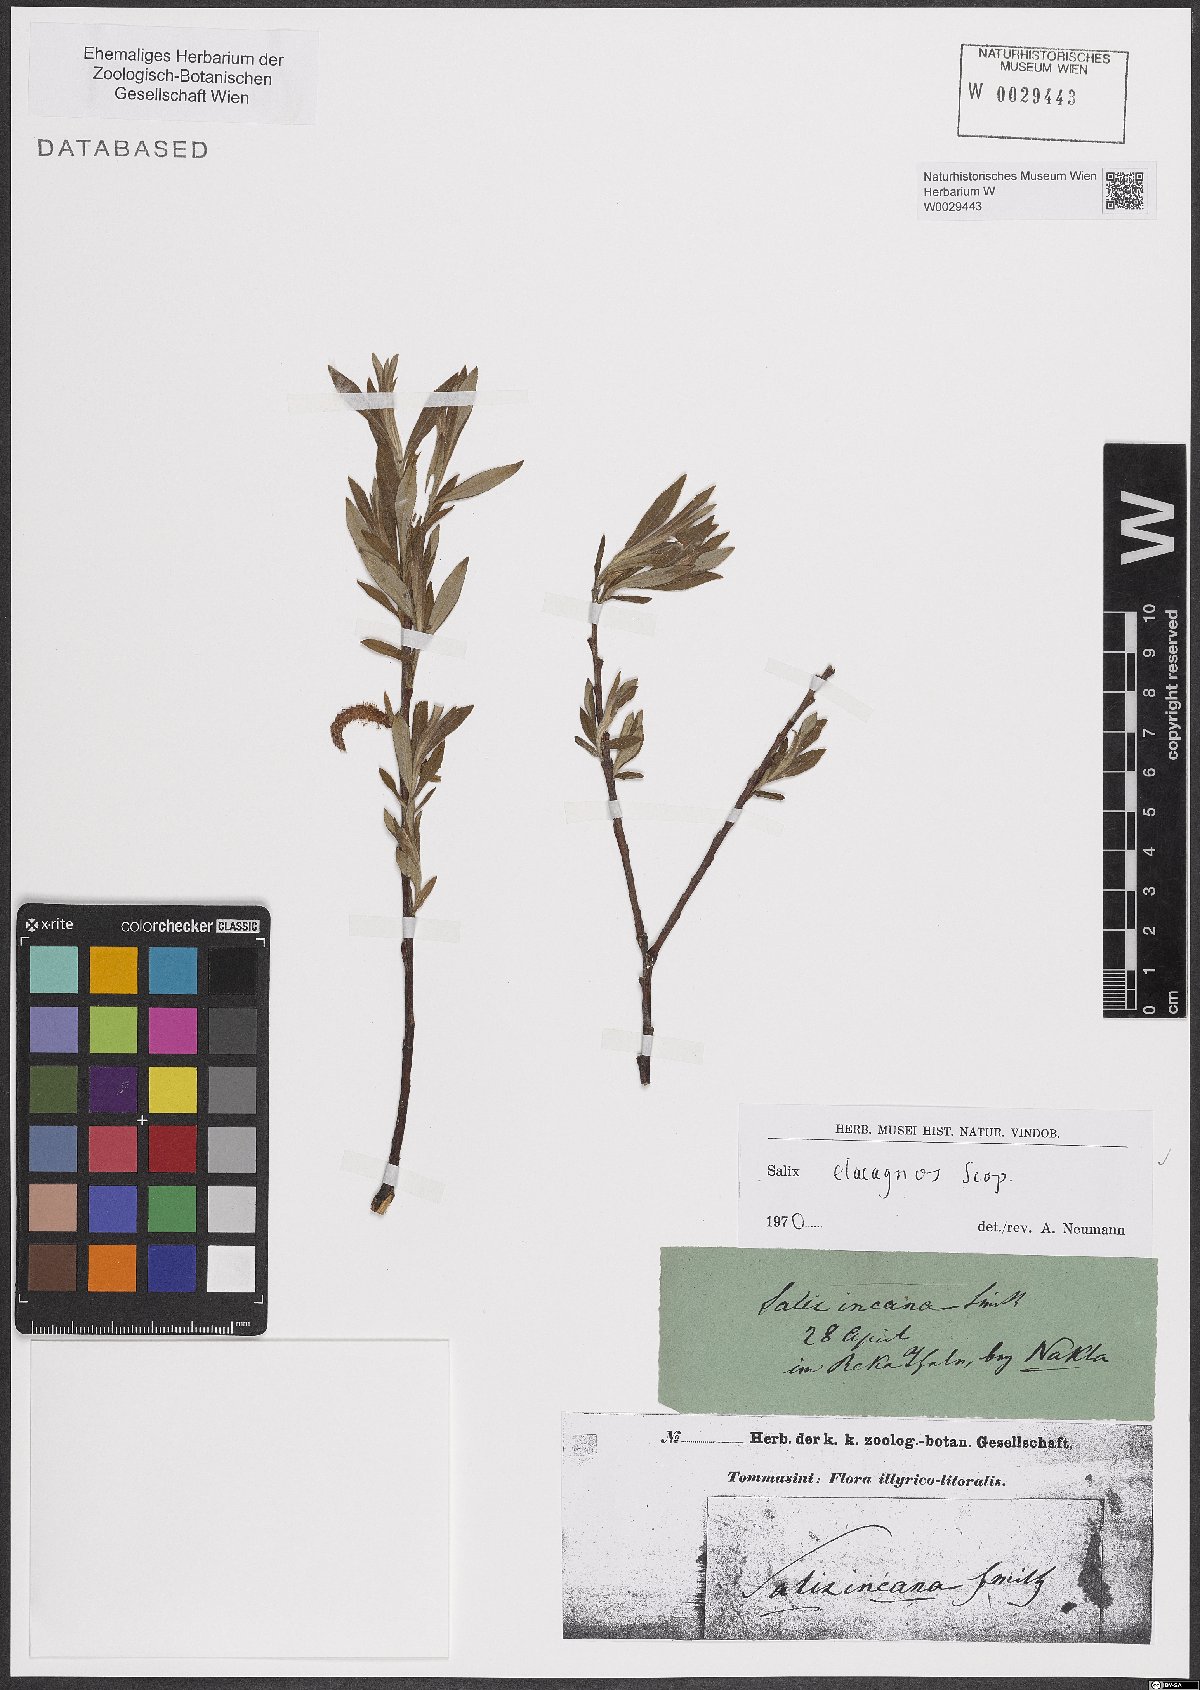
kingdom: Plantae
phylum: Tracheophyta
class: Magnoliopsida
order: Malpighiales
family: Salicaceae
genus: Salix
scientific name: Salix eleagnos
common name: Elaeagnus willow
